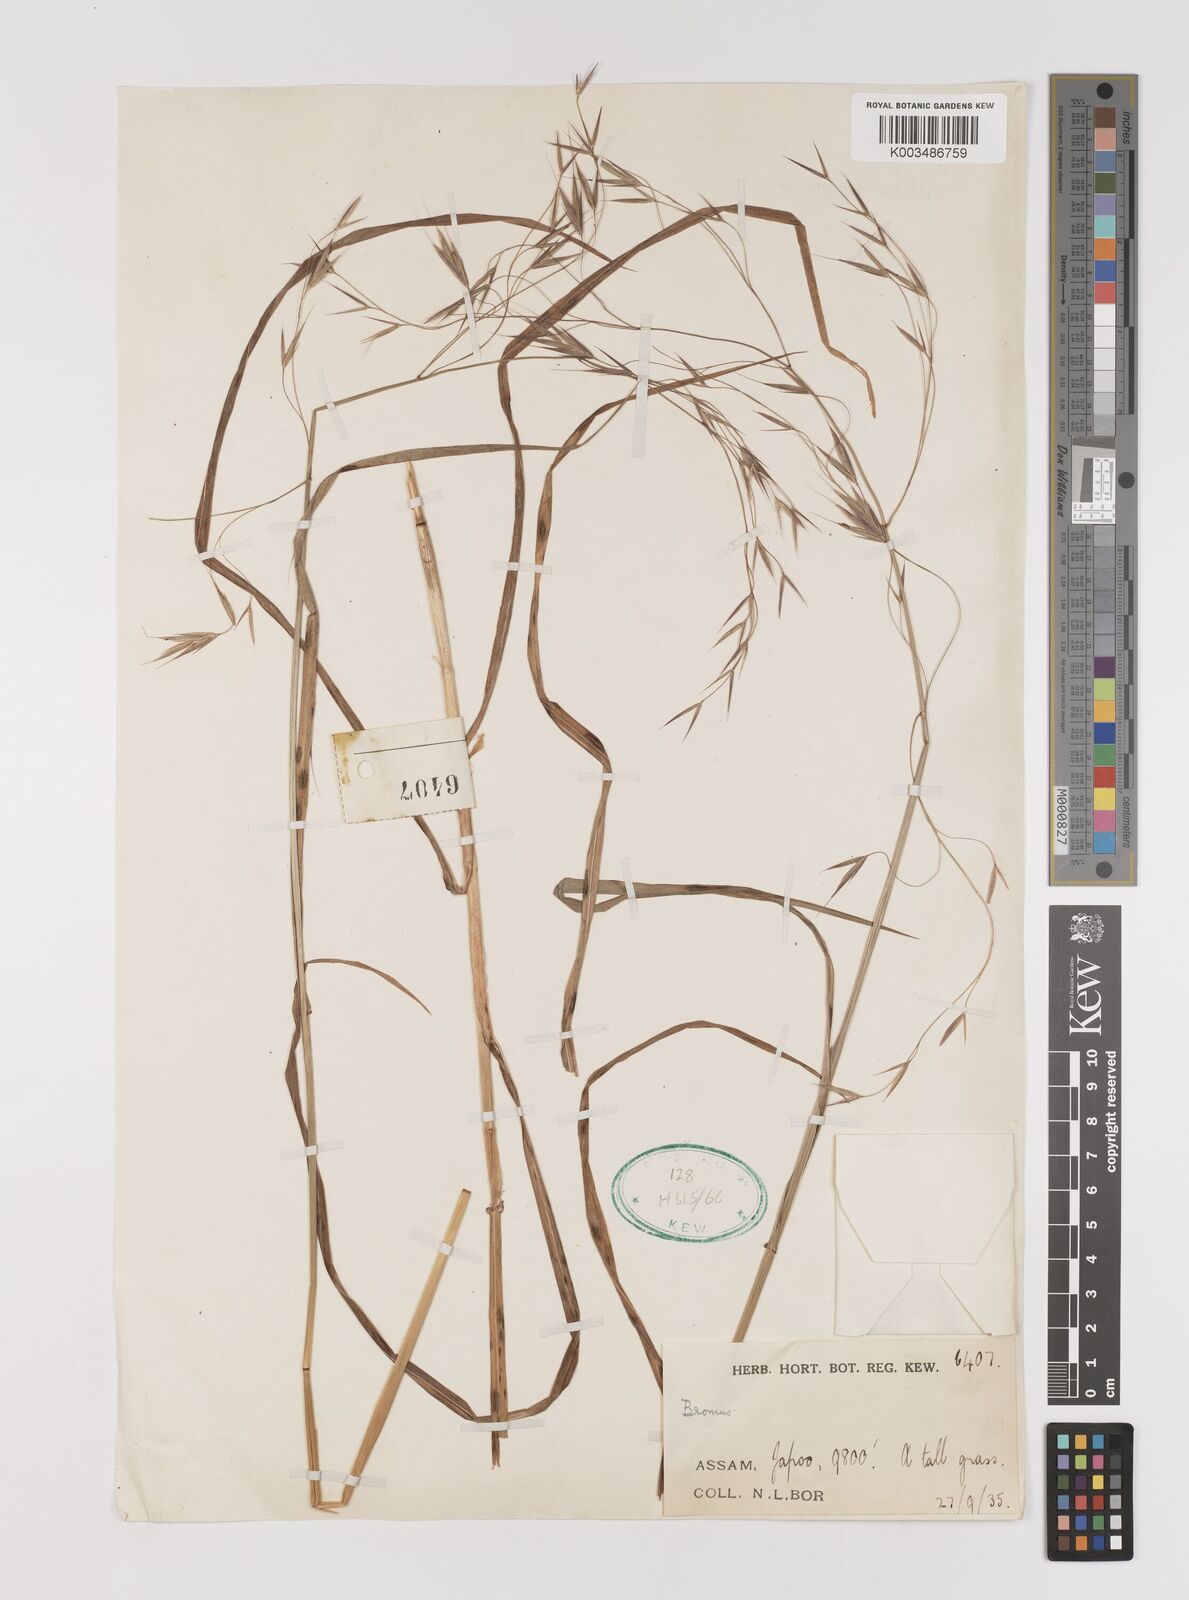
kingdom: Plantae
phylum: Tracheophyta
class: Liliopsida
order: Poales
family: Poaceae
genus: Brachypodium
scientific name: Brachypodium retusum
